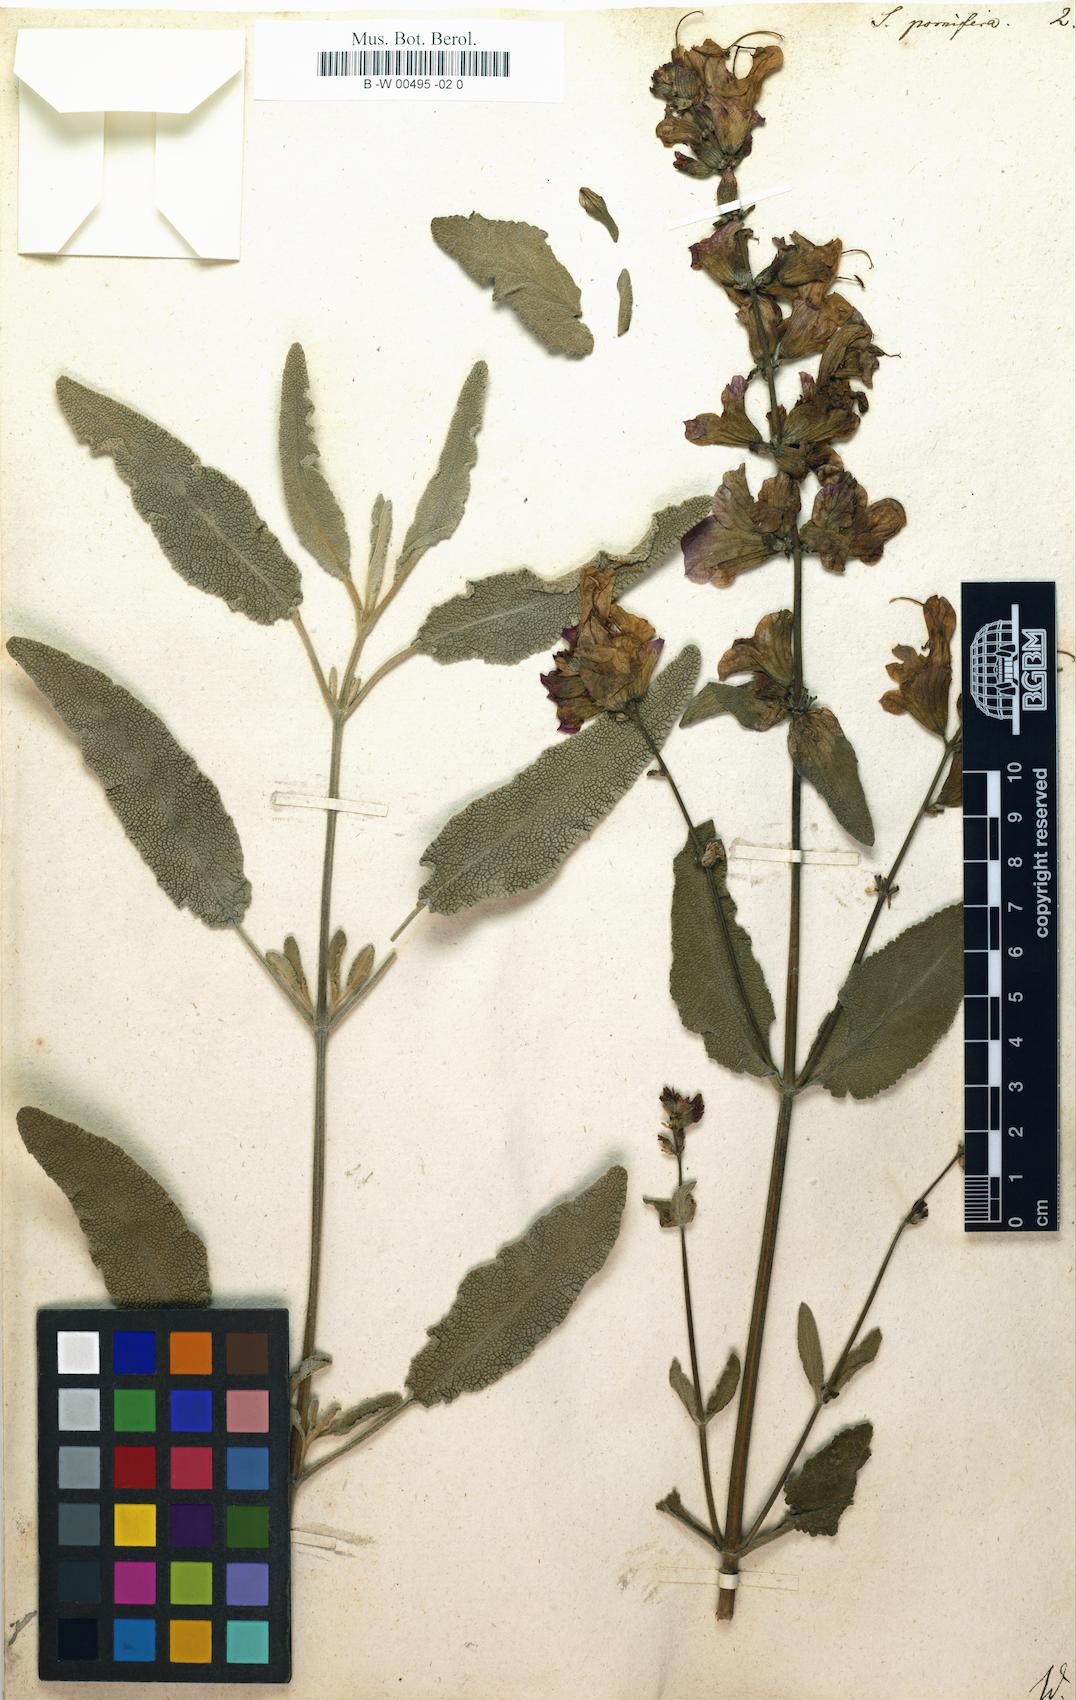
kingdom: Plantae
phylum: Tracheophyta
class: Magnoliopsida
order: Lamiales
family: Lamiaceae
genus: Salvia
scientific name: Salvia pomifera
